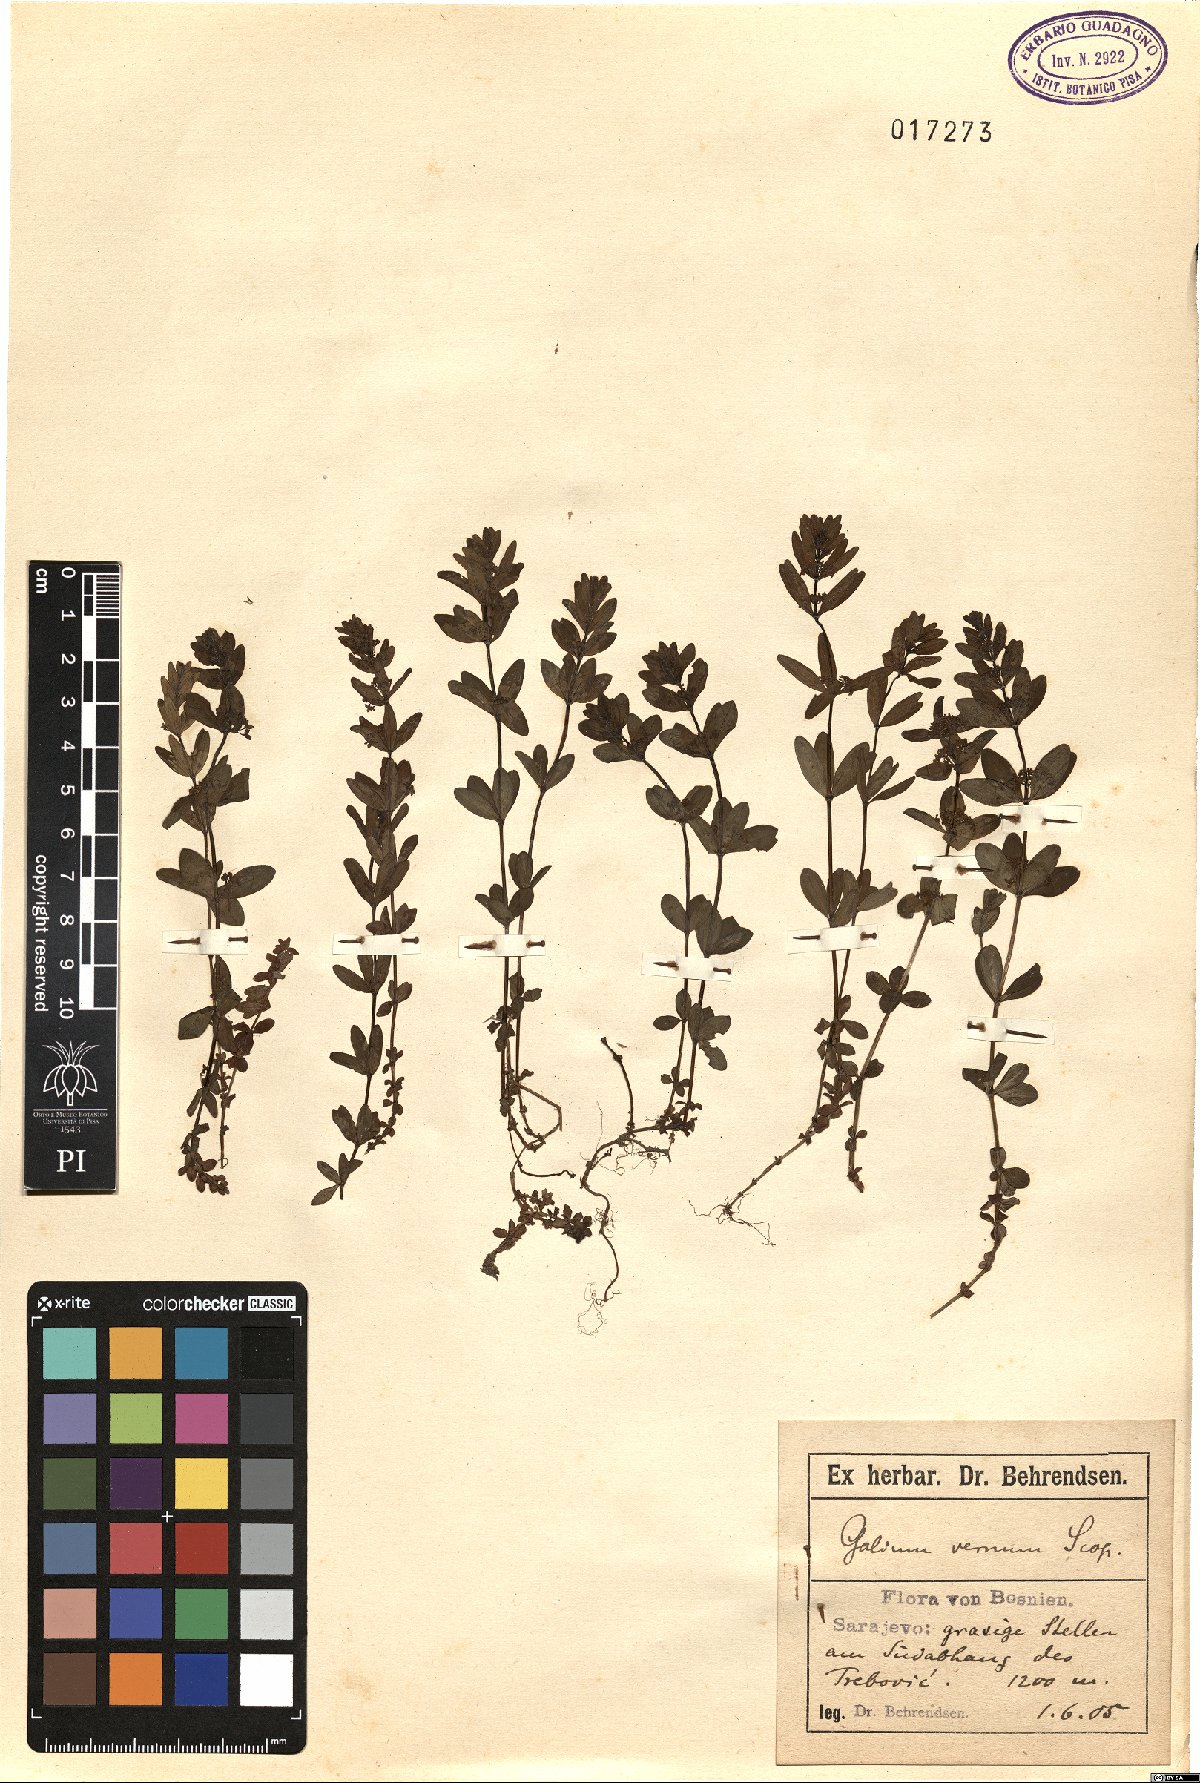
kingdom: Plantae
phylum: Tracheophyta
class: Magnoliopsida
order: Gentianales
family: Rubiaceae
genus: Cruciata
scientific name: Cruciata glabra
